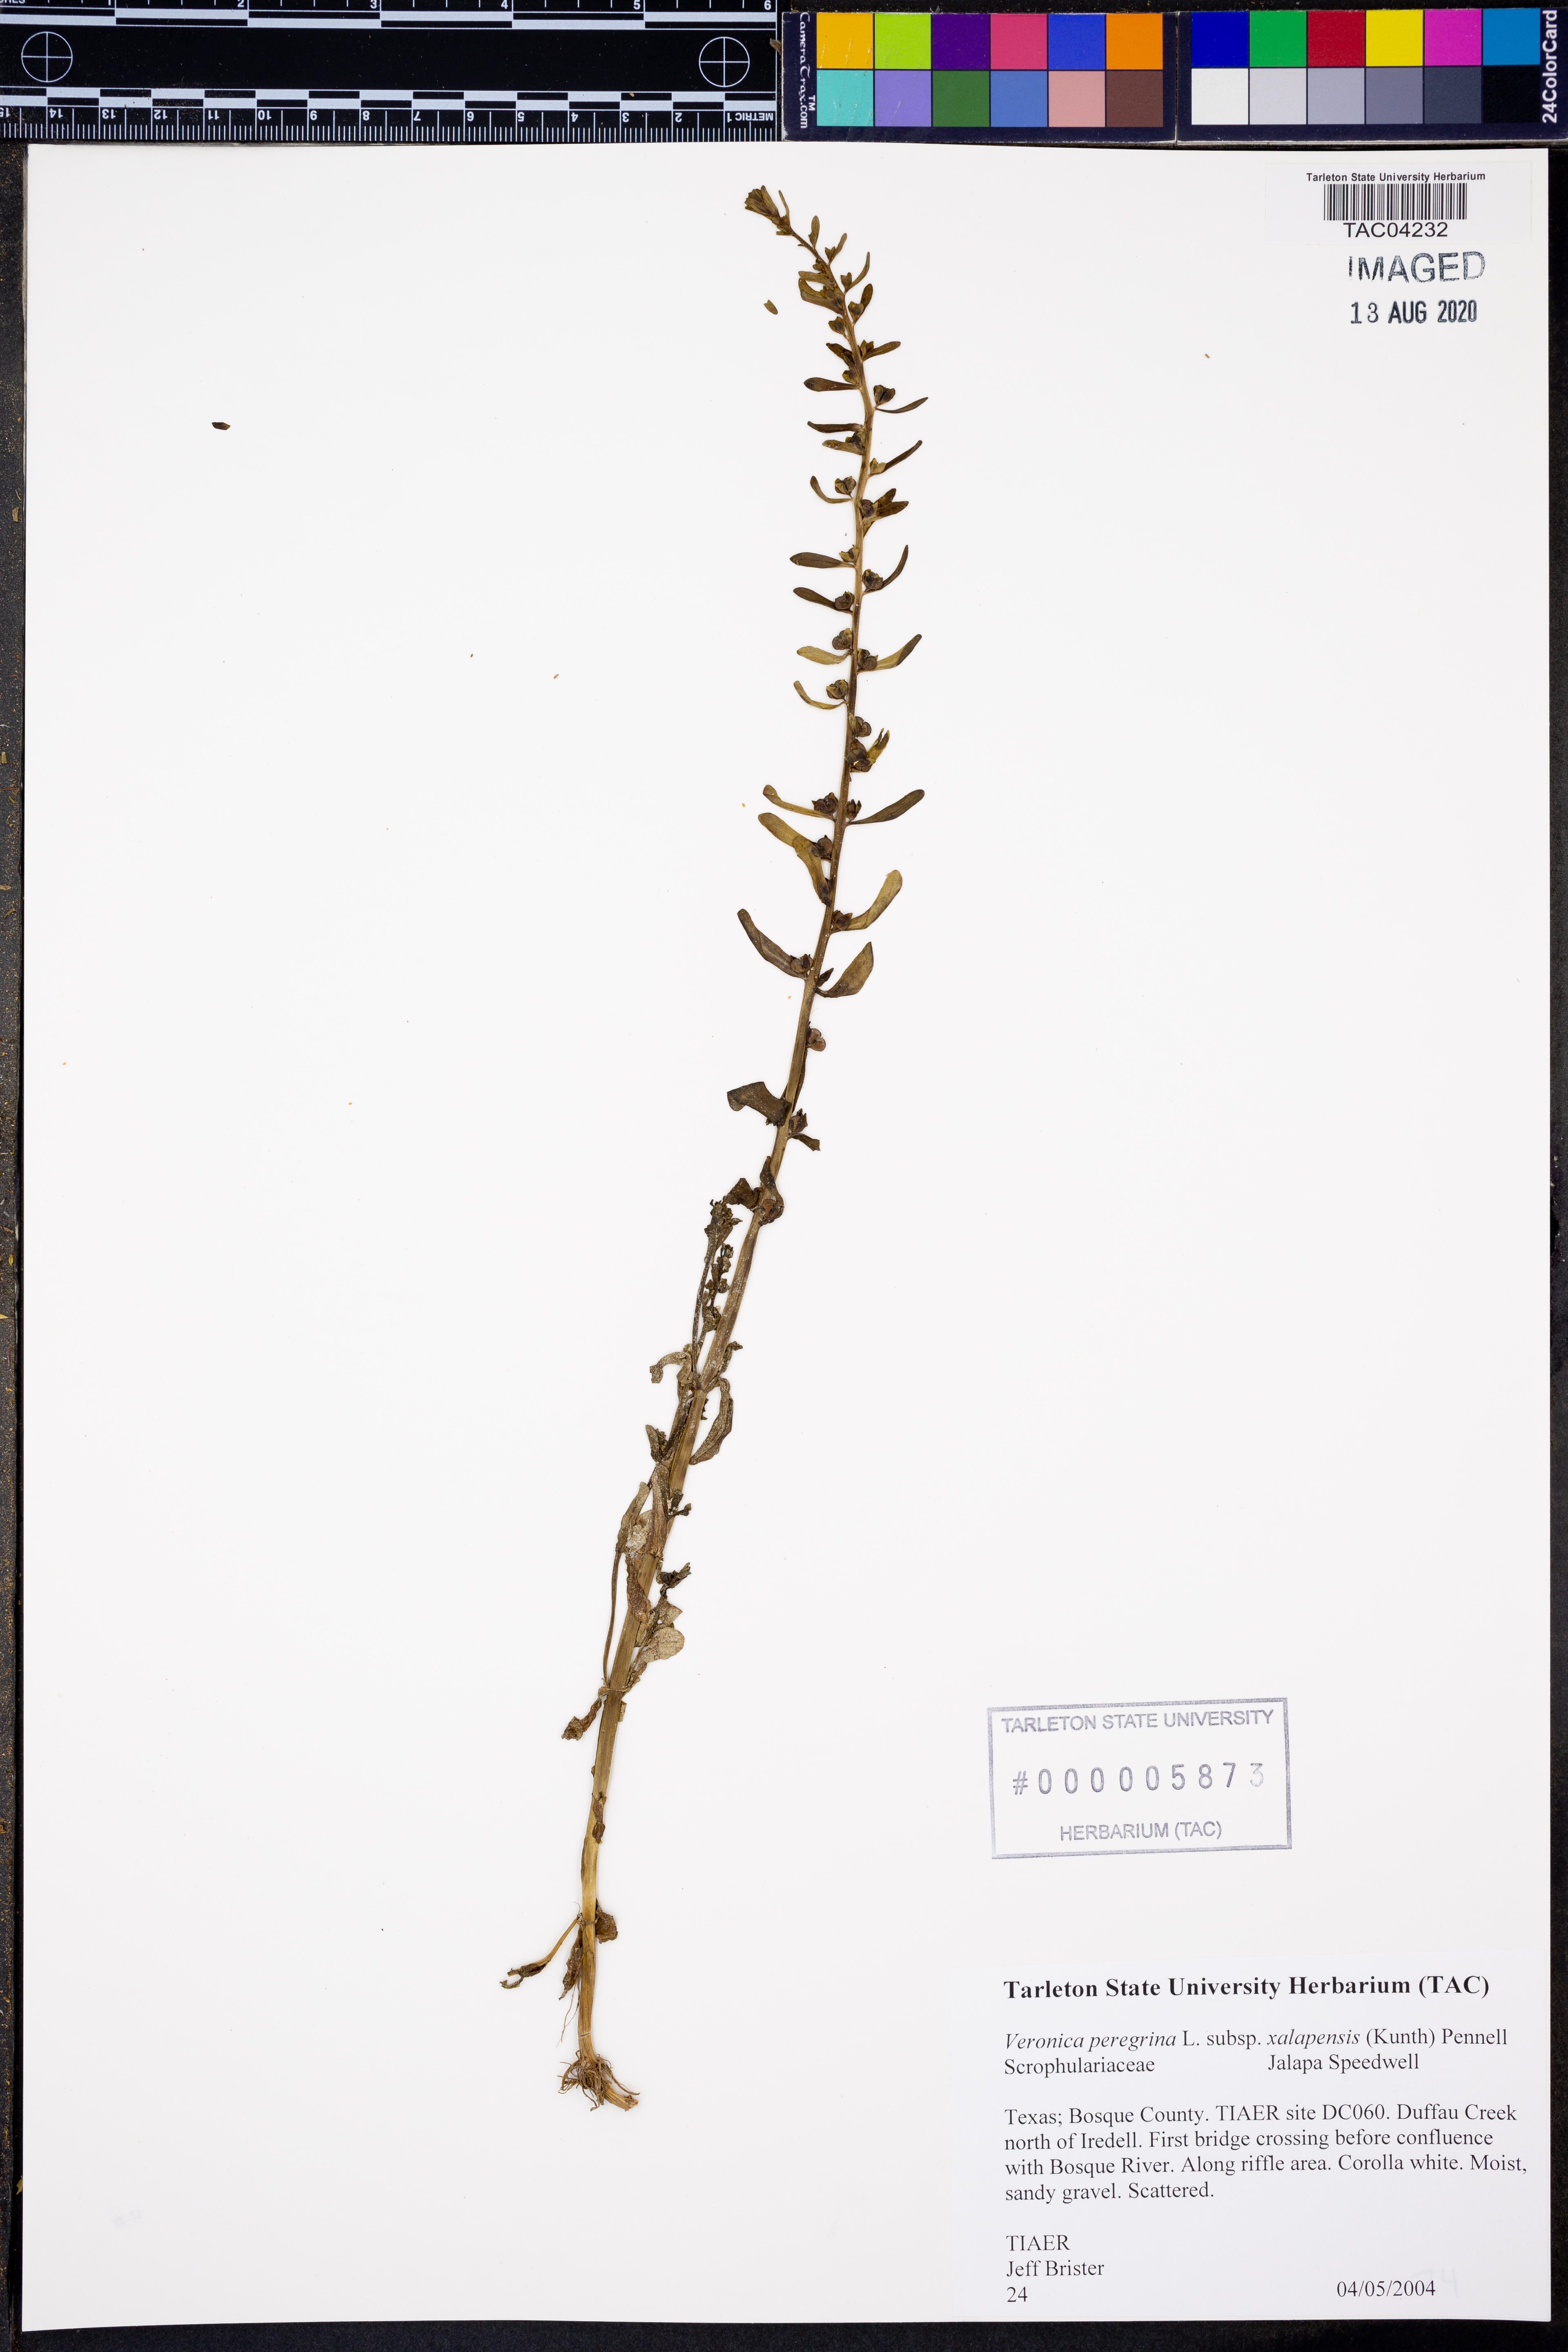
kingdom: Plantae
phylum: Tracheophyta
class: Magnoliopsida
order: Lamiales
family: Plantaginaceae
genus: Veronica
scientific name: Veronica peregrina
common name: Neckweed
